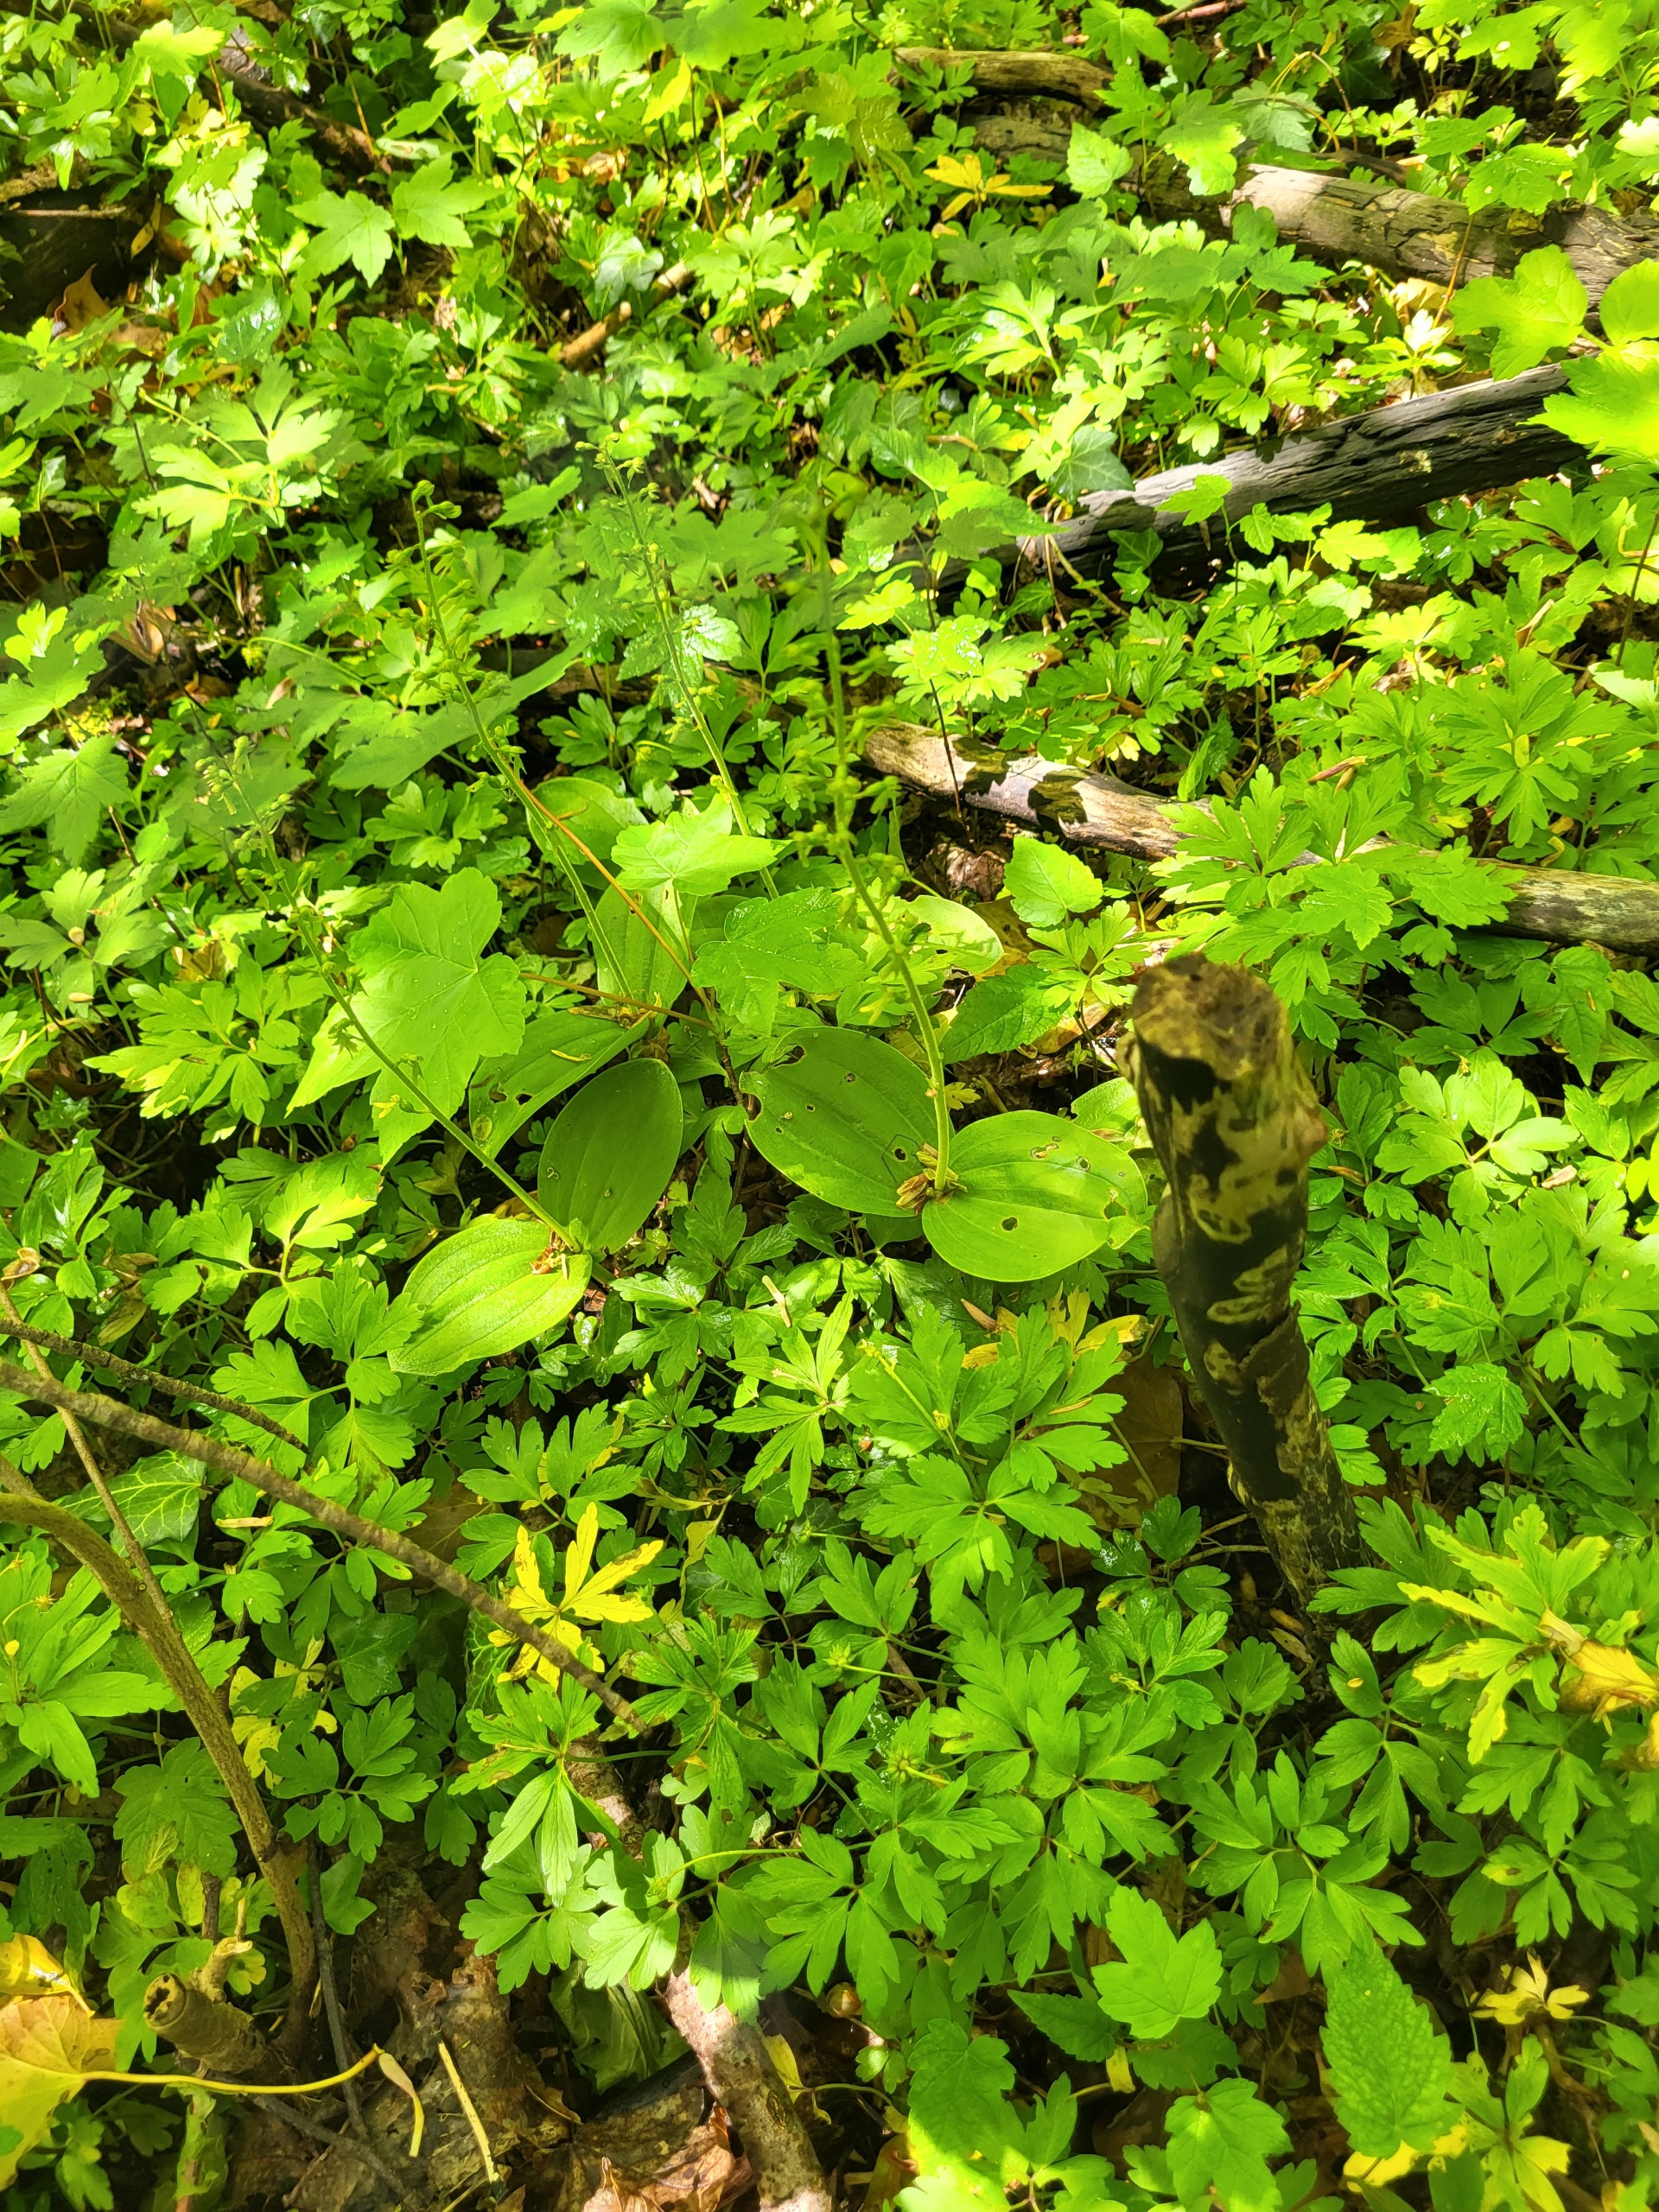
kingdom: Plantae
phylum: Tracheophyta
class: Liliopsida
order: Asparagales
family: Orchidaceae
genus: Neottia
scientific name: Neottia ovata
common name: Ægbladet fliglæbe
